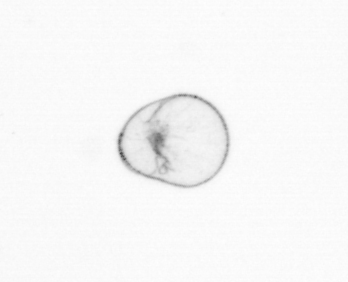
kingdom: Chromista
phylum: Myzozoa
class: Dinophyceae
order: Noctilucales
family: Noctilucaceae
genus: Noctiluca
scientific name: Noctiluca scintillans
